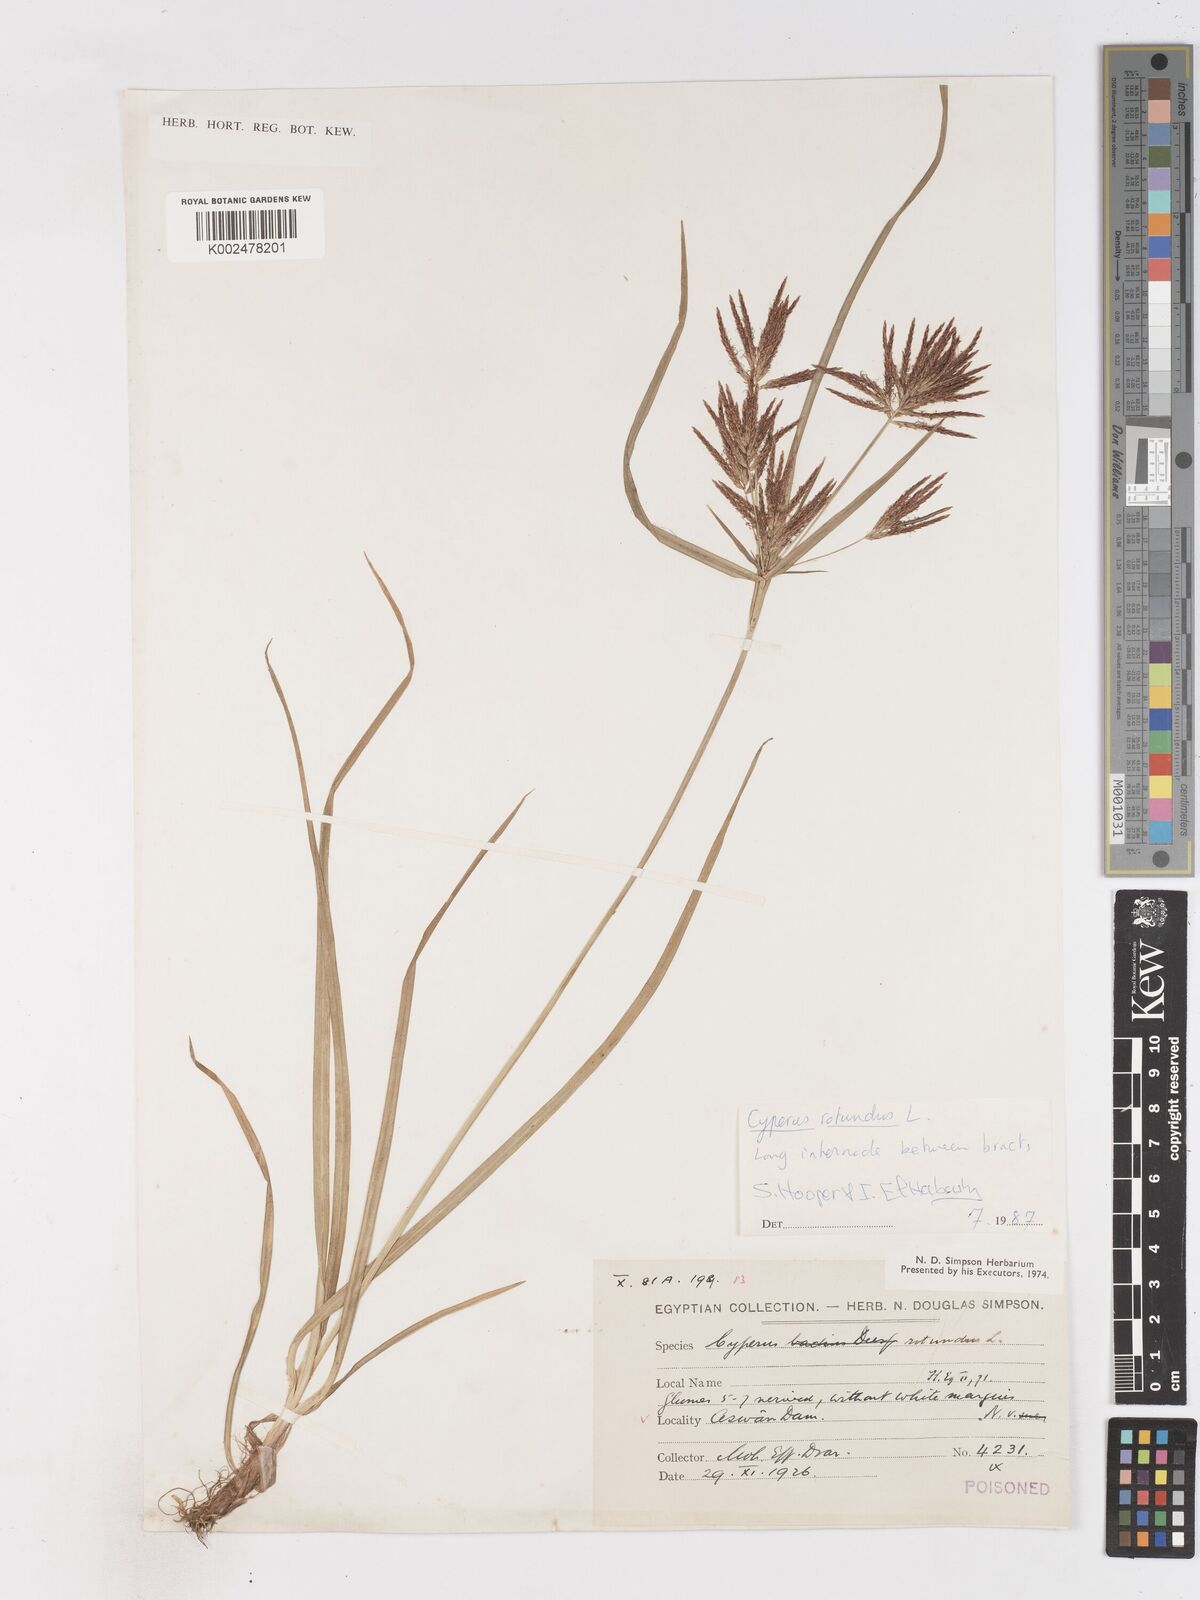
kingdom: Plantae
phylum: Tracheophyta
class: Liliopsida
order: Poales
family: Cyperaceae
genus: Cyperus
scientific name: Cyperus rotundus
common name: Nutgrass
